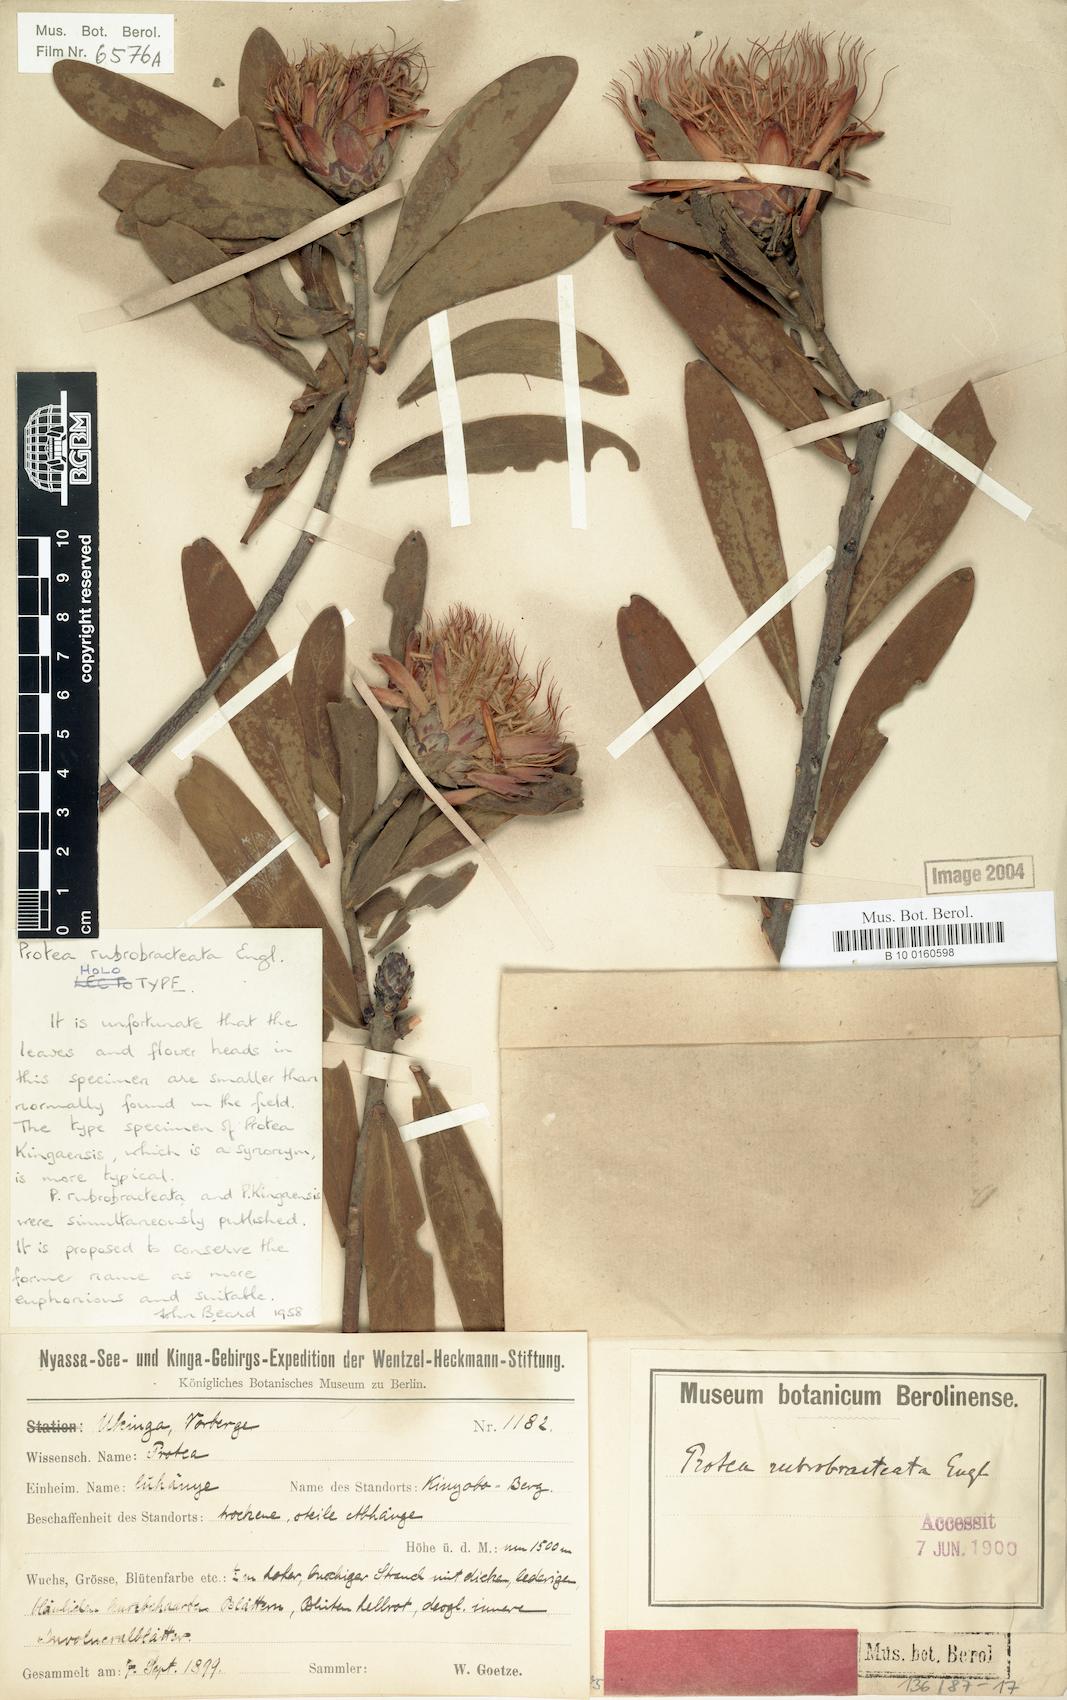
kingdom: Plantae
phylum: Tracheophyta
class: Magnoliopsida
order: Proteales
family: Proteaceae
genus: Protea
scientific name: Protea rubrobracteata
